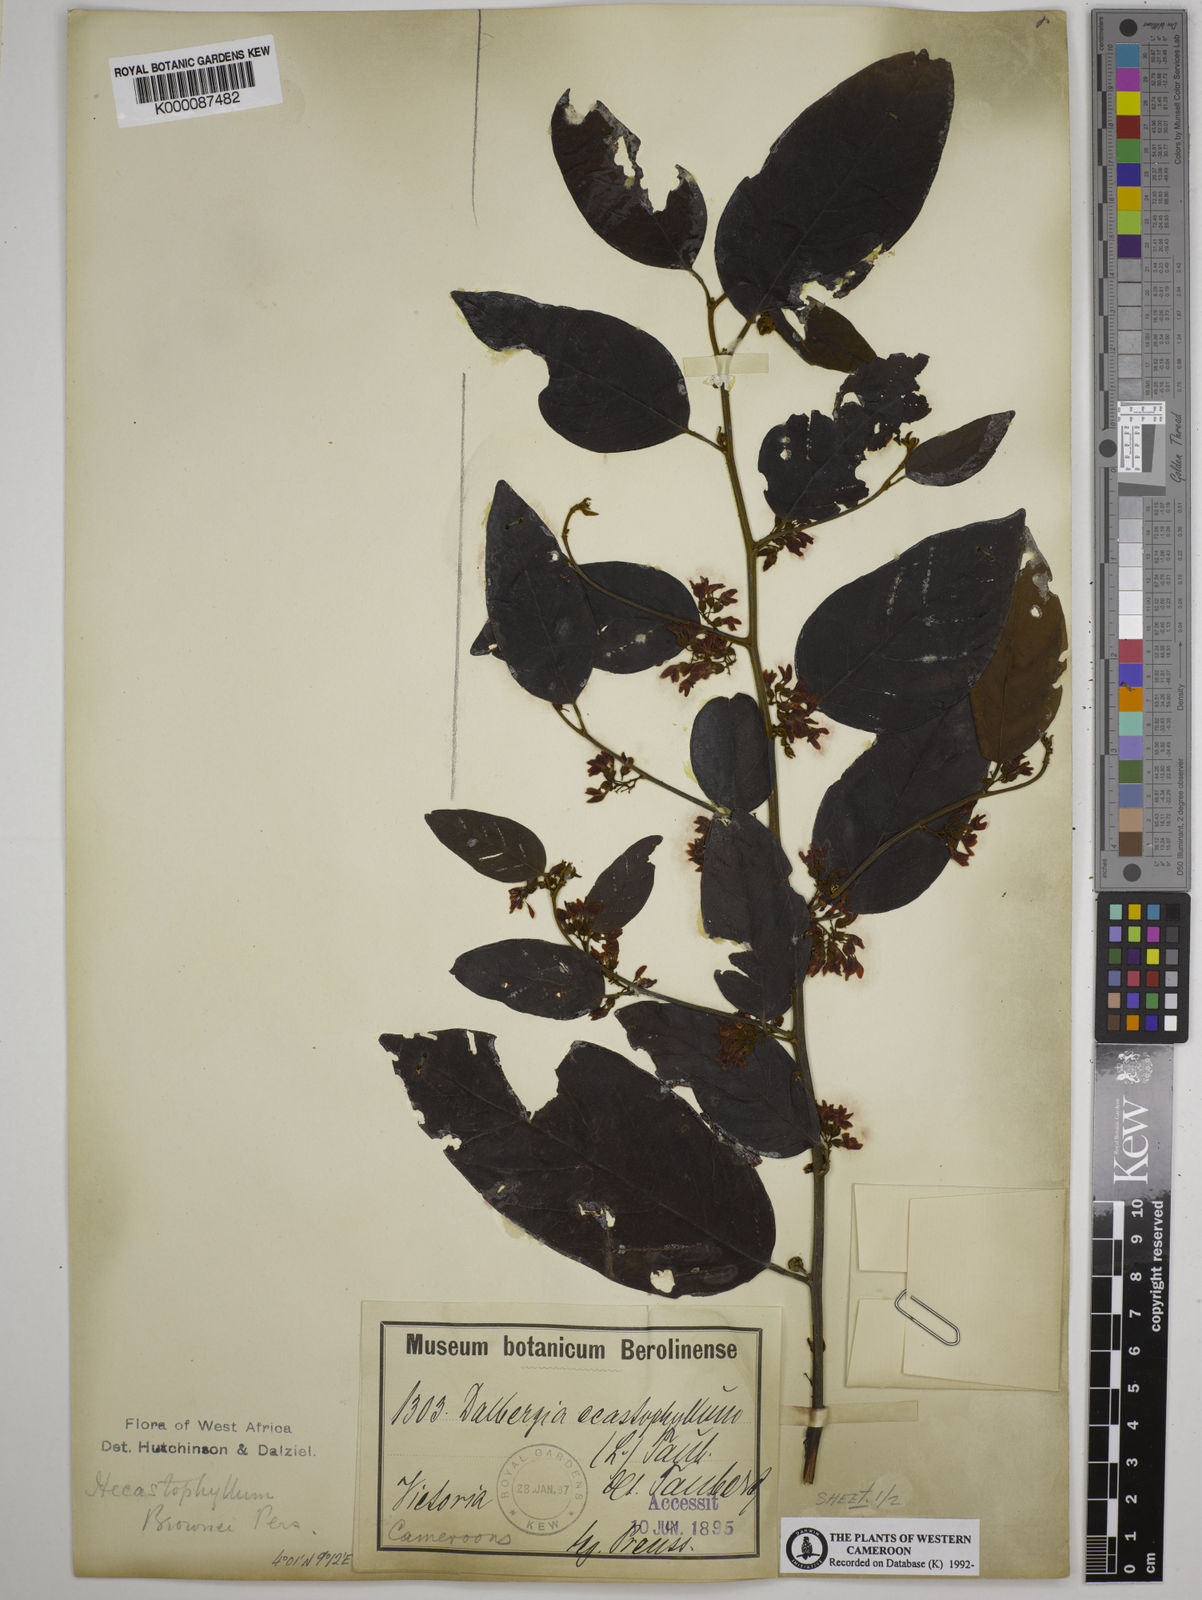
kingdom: Plantae
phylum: Tracheophyta
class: Magnoliopsida
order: Fabales
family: Fabaceae
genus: Dalbergia
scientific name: Dalbergia ecastaphyllum
